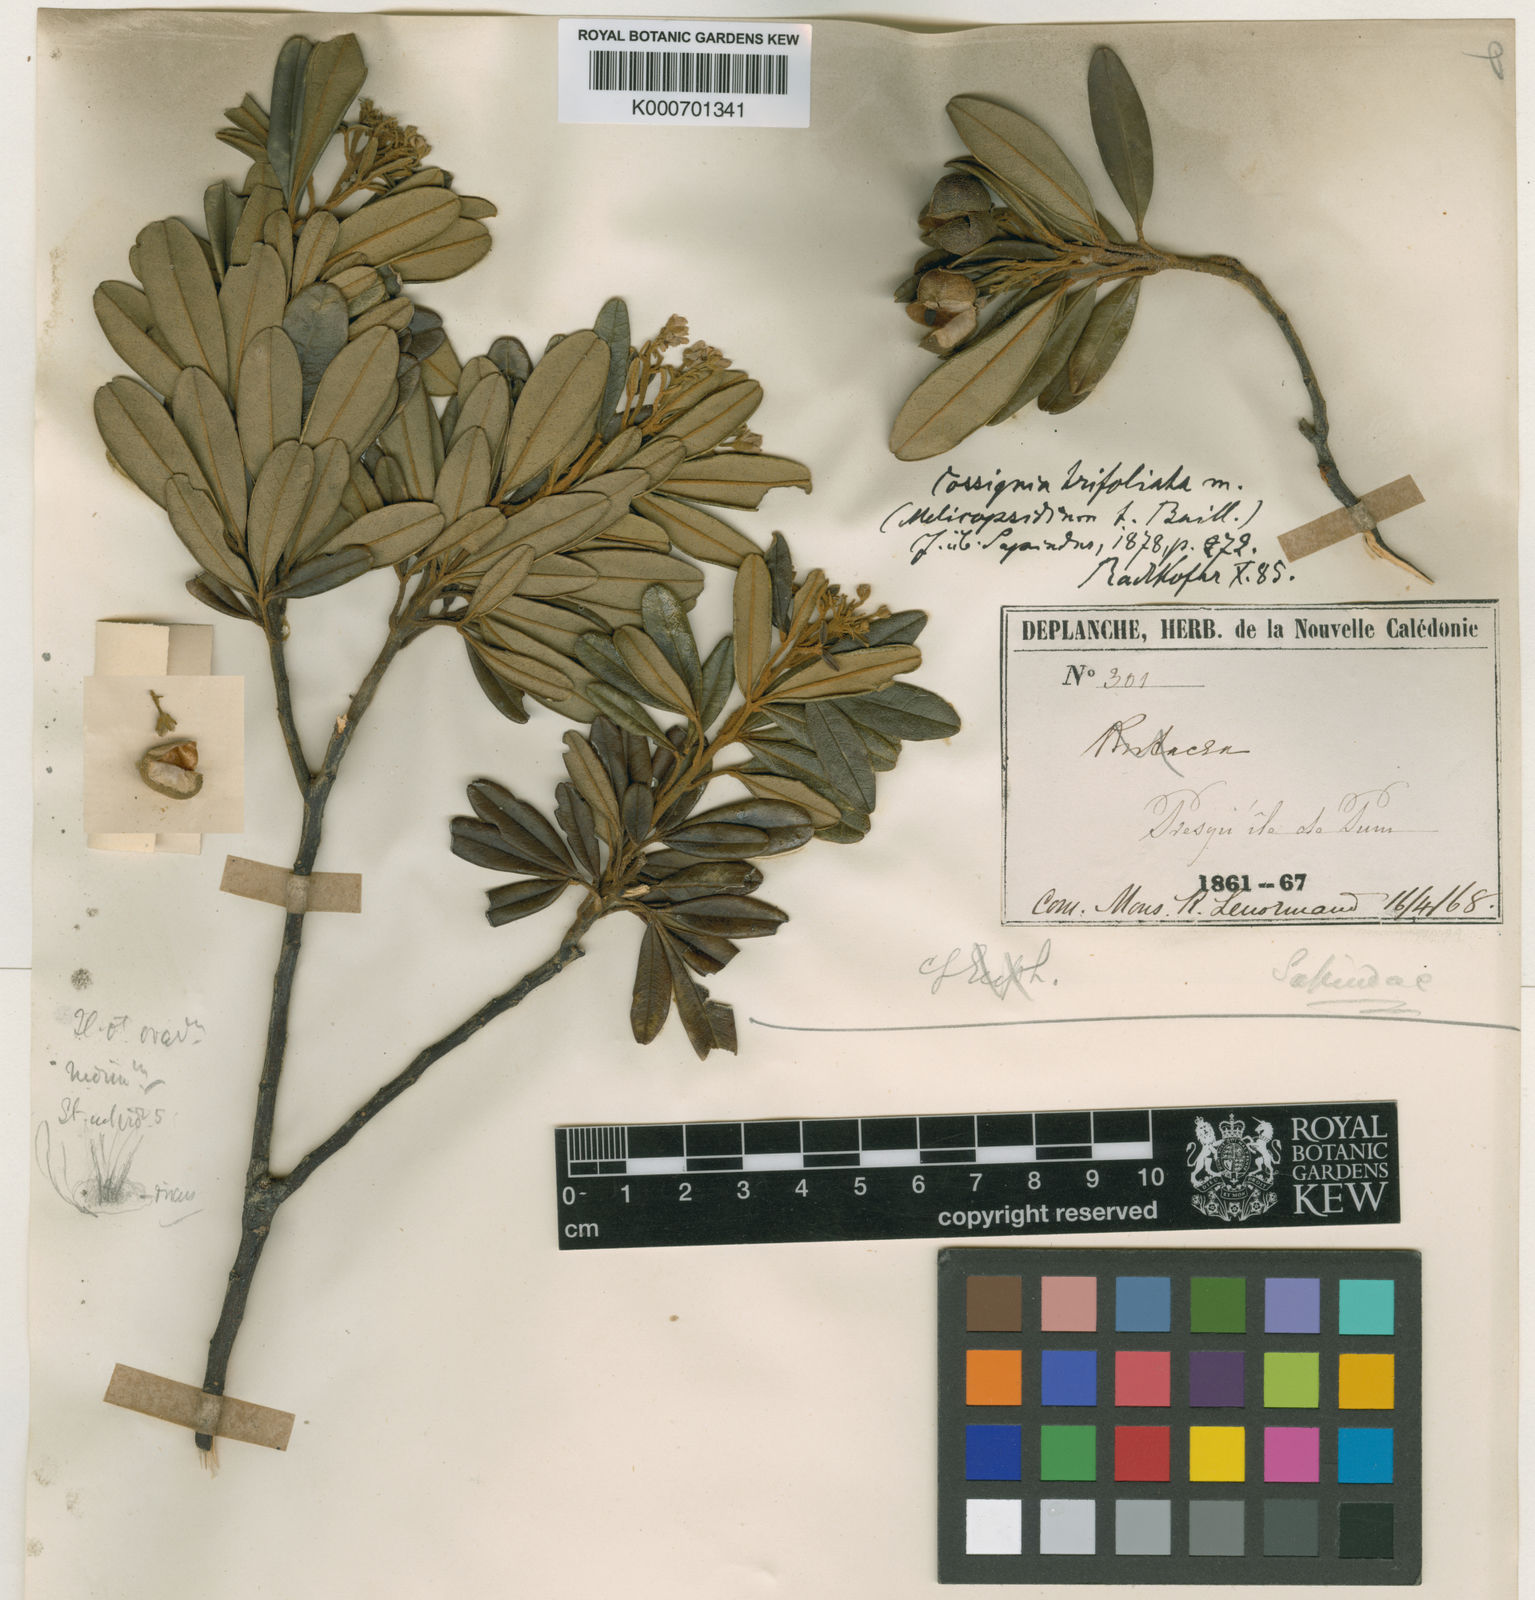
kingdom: Plantae
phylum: Tracheophyta
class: Magnoliopsida
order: Sapindales
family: Sapindaceae
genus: Cossinia
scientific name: Cossinia trifoliata
